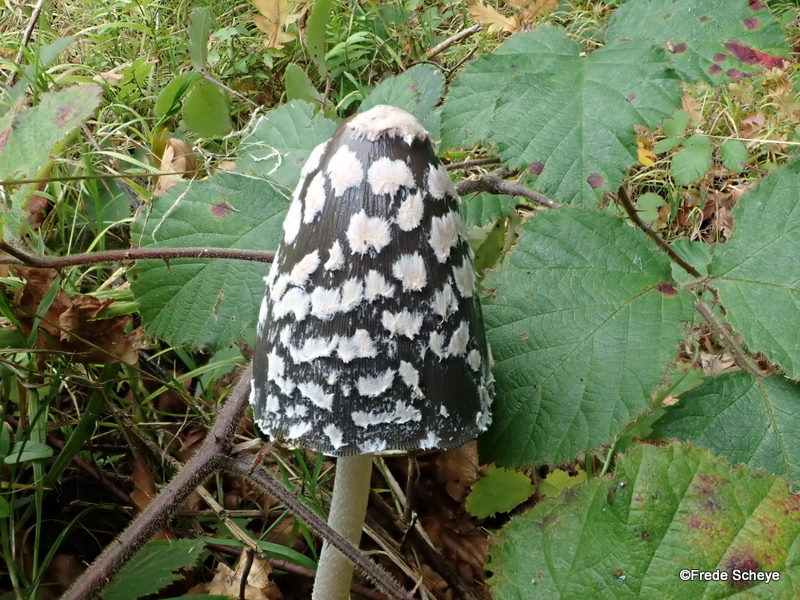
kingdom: Fungi
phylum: Basidiomycota
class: Agaricomycetes
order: Agaricales
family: Psathyrellaceae
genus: Coprinopsis
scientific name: Coprinopsis picacea
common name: skade-blækhat
